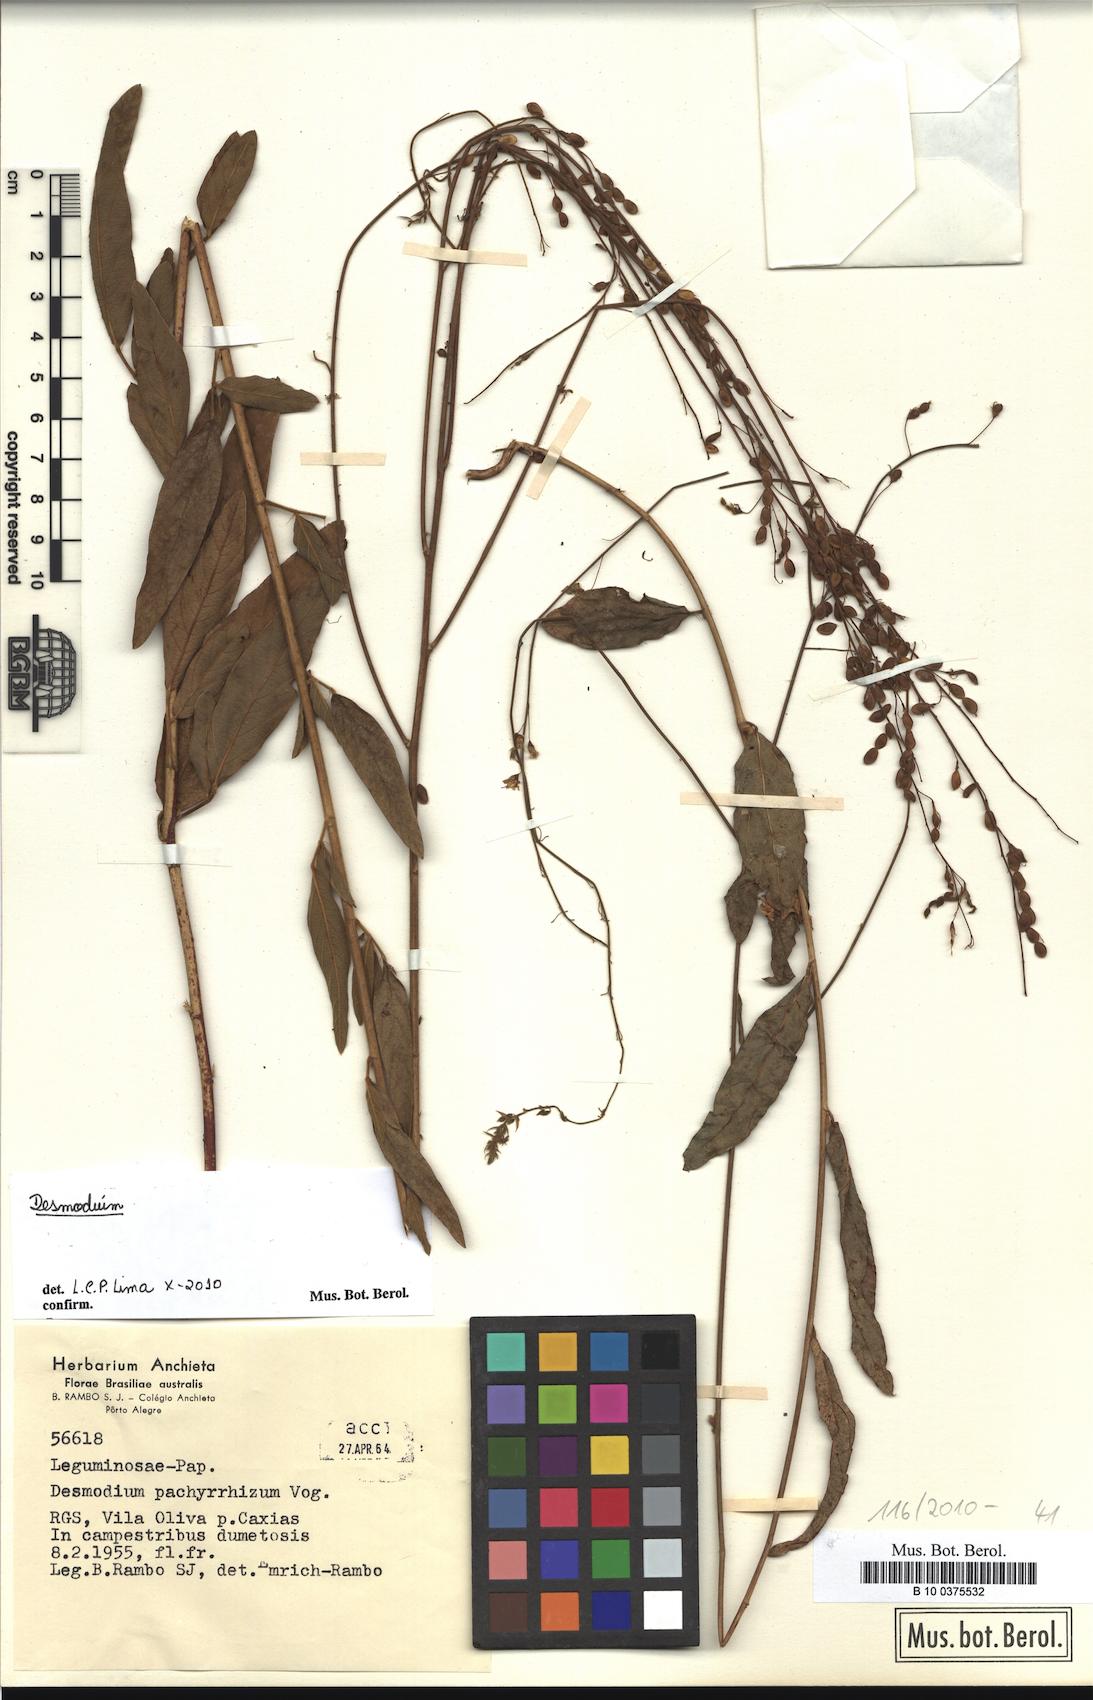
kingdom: Plantae
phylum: Tracheophyta
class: Magnoliopsida
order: Fabales
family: Fabaceae
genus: Desmodium
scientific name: Desmodium
